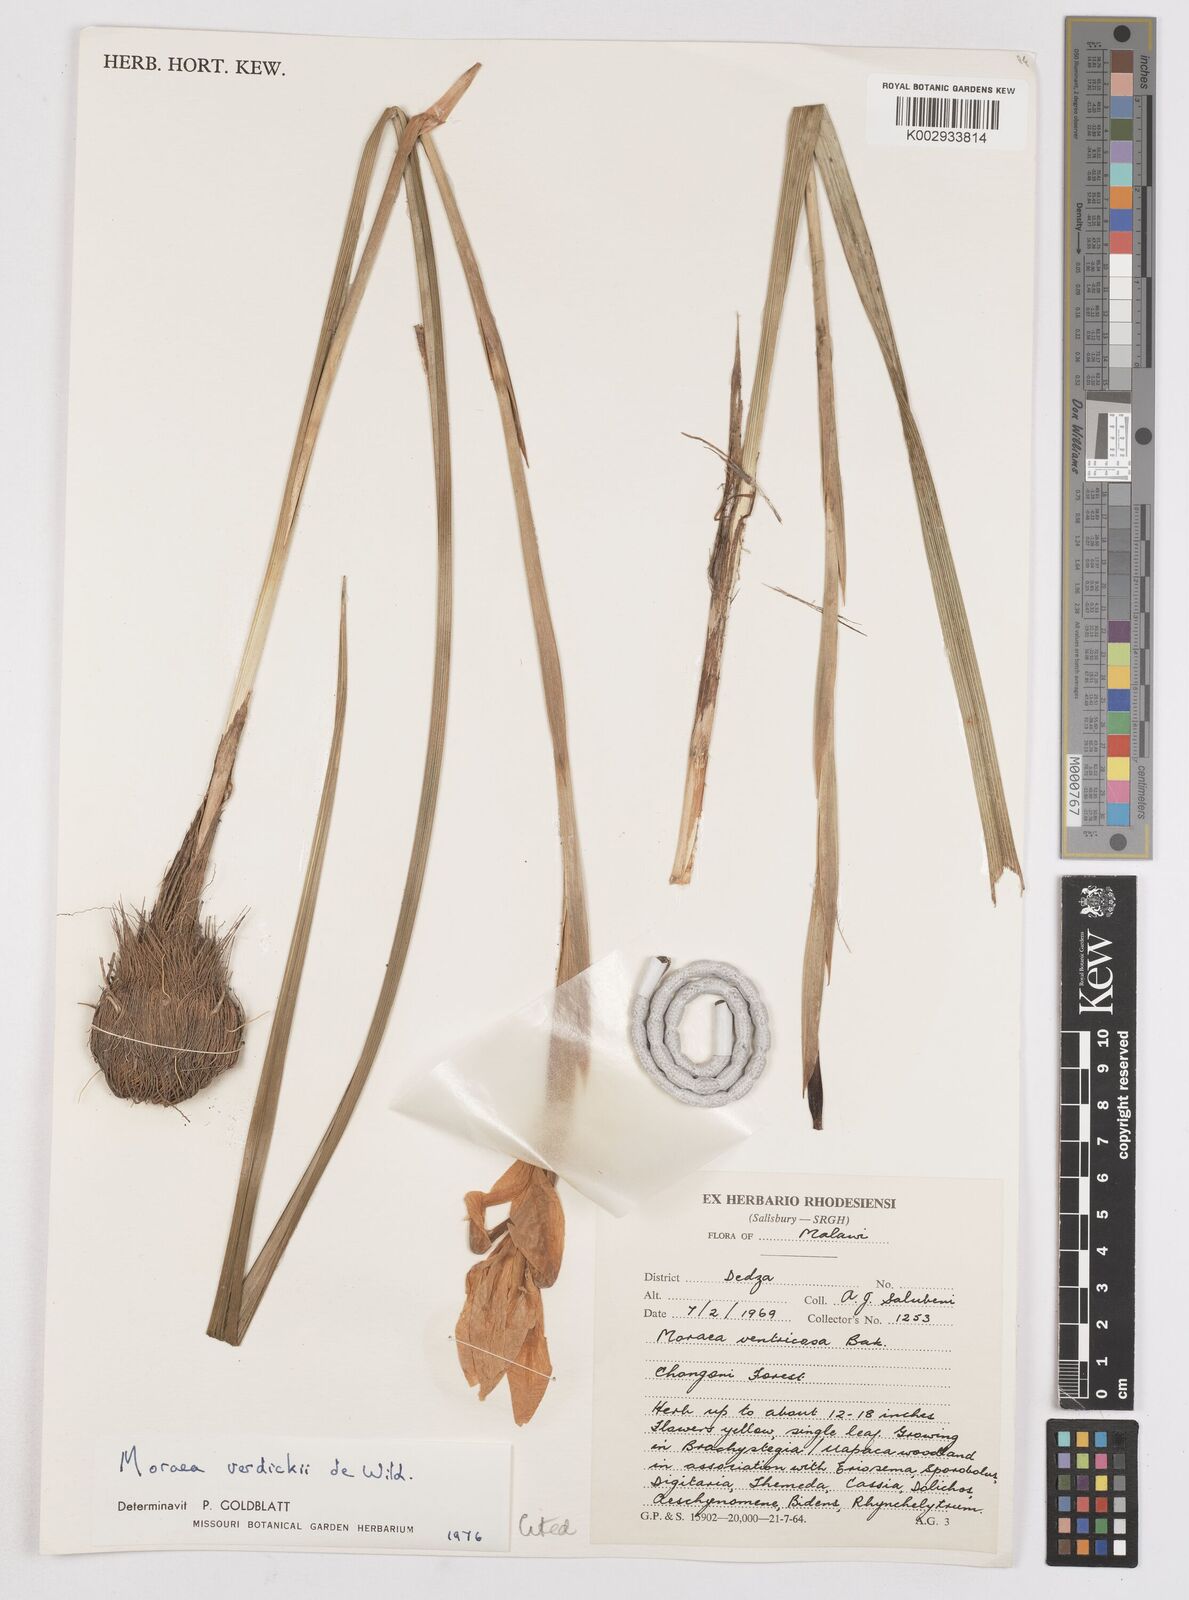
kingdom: Plantae
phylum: Tracheophyta
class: Liliopsida
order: Asparagales
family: Iridaceae
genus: Moraea
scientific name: Moraea verdickii
